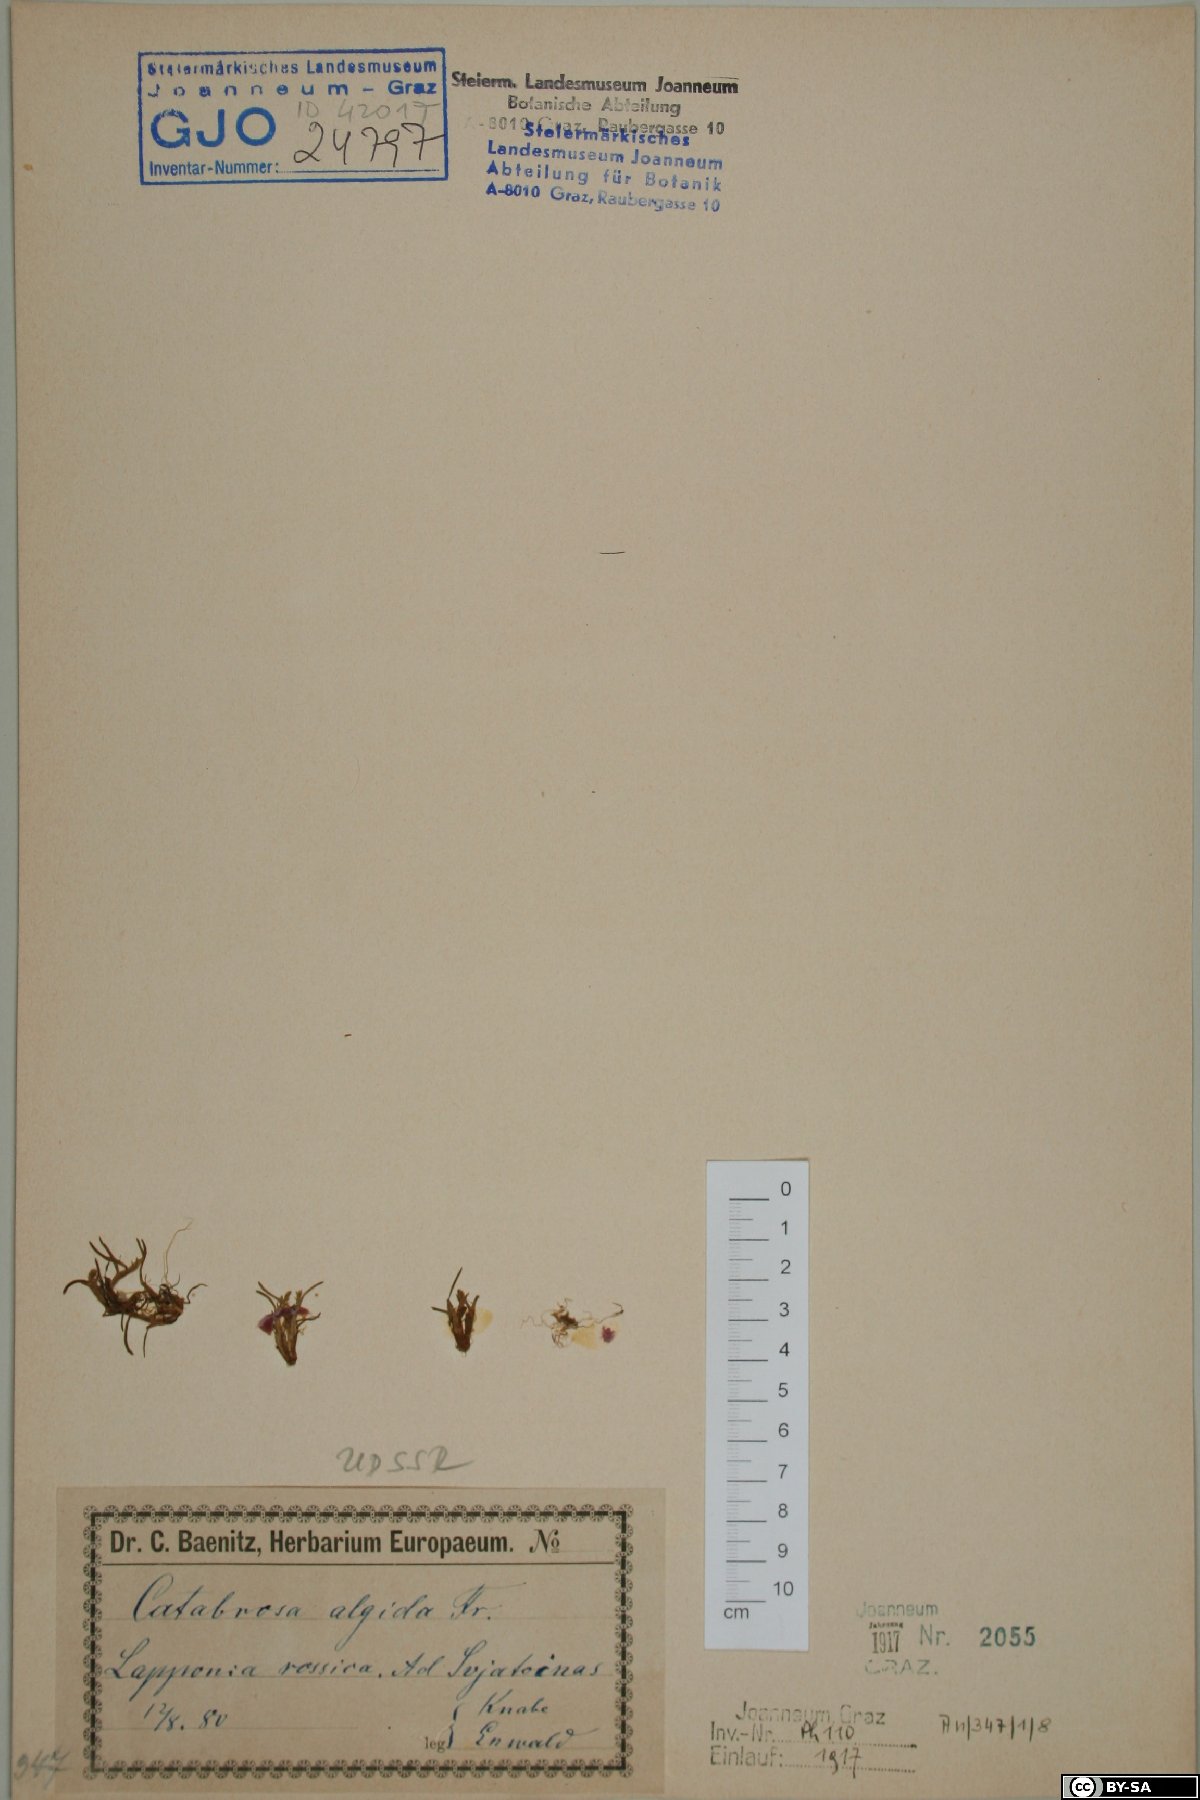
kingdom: Plantae
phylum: Tracheophyta
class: Liliopsida
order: Poales
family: Poaceae
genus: Phippsia
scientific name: Phippsia algida
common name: Ice grass
